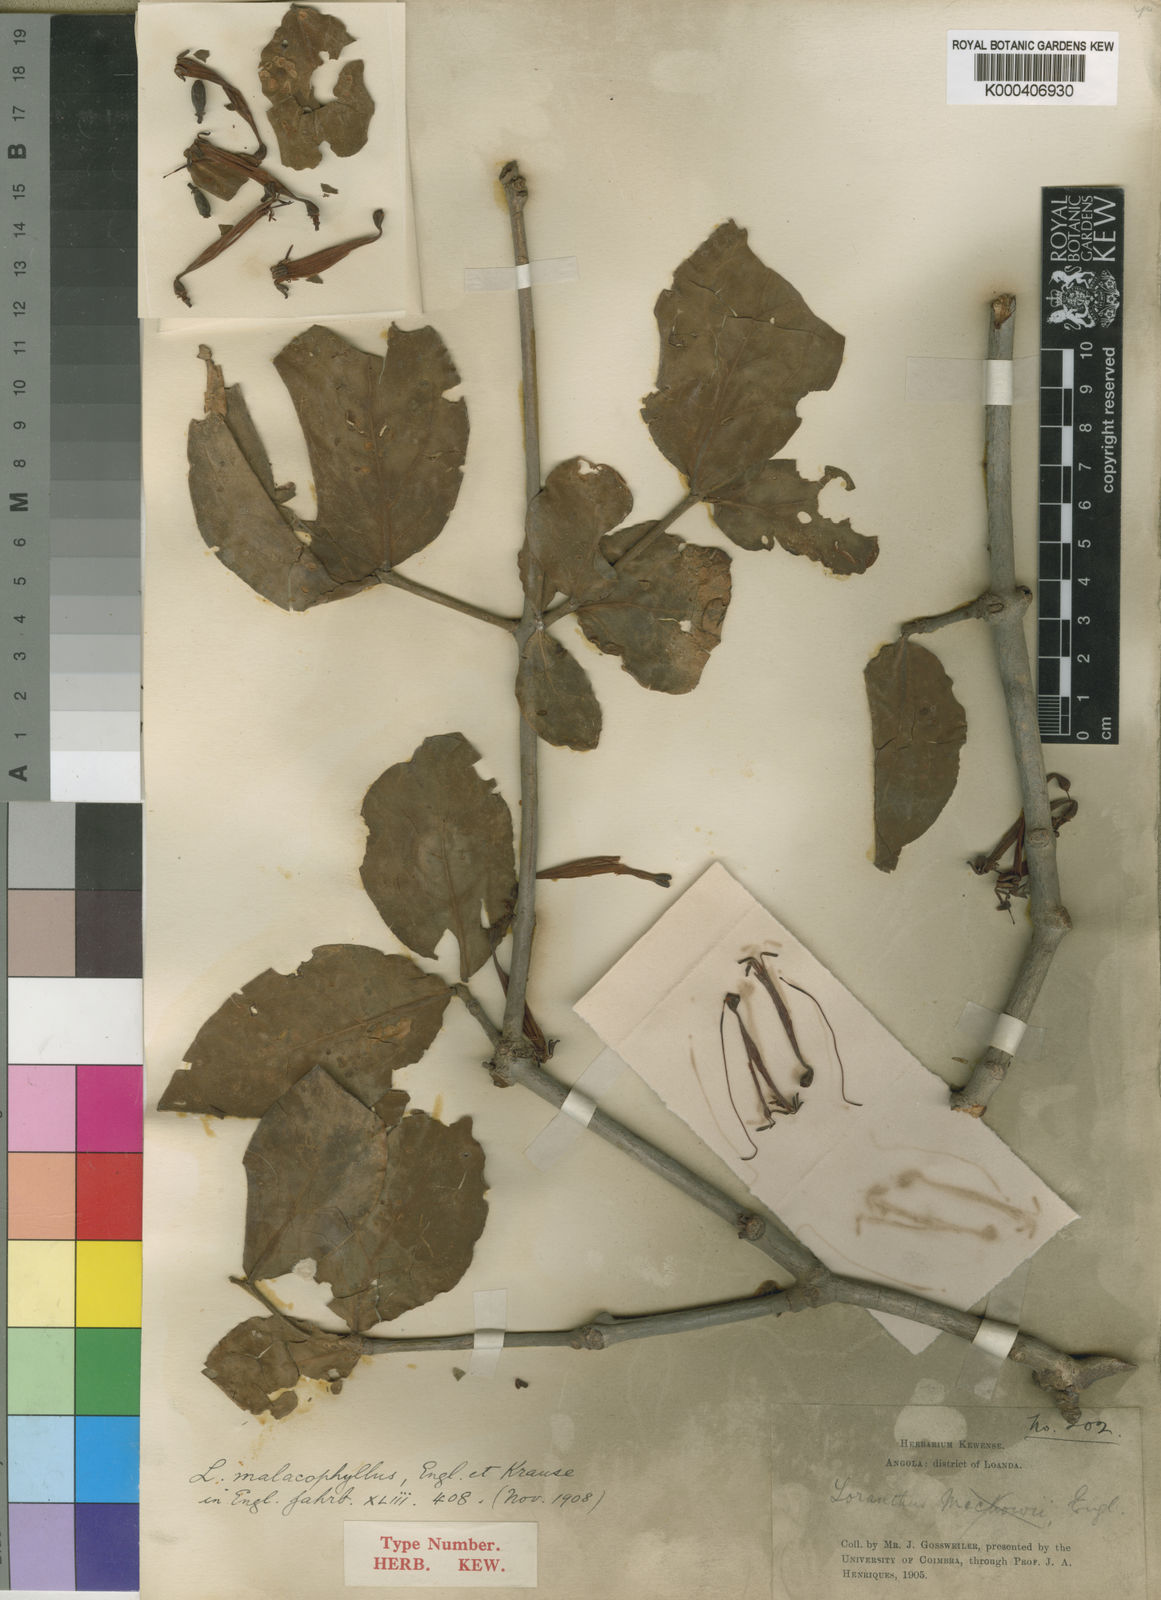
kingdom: Plantae
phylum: Tracheophyta
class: Magnoliopsida
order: Santalales
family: Loranthaceae
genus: Tapinanthus
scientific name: Tapinanthus mollissimus
